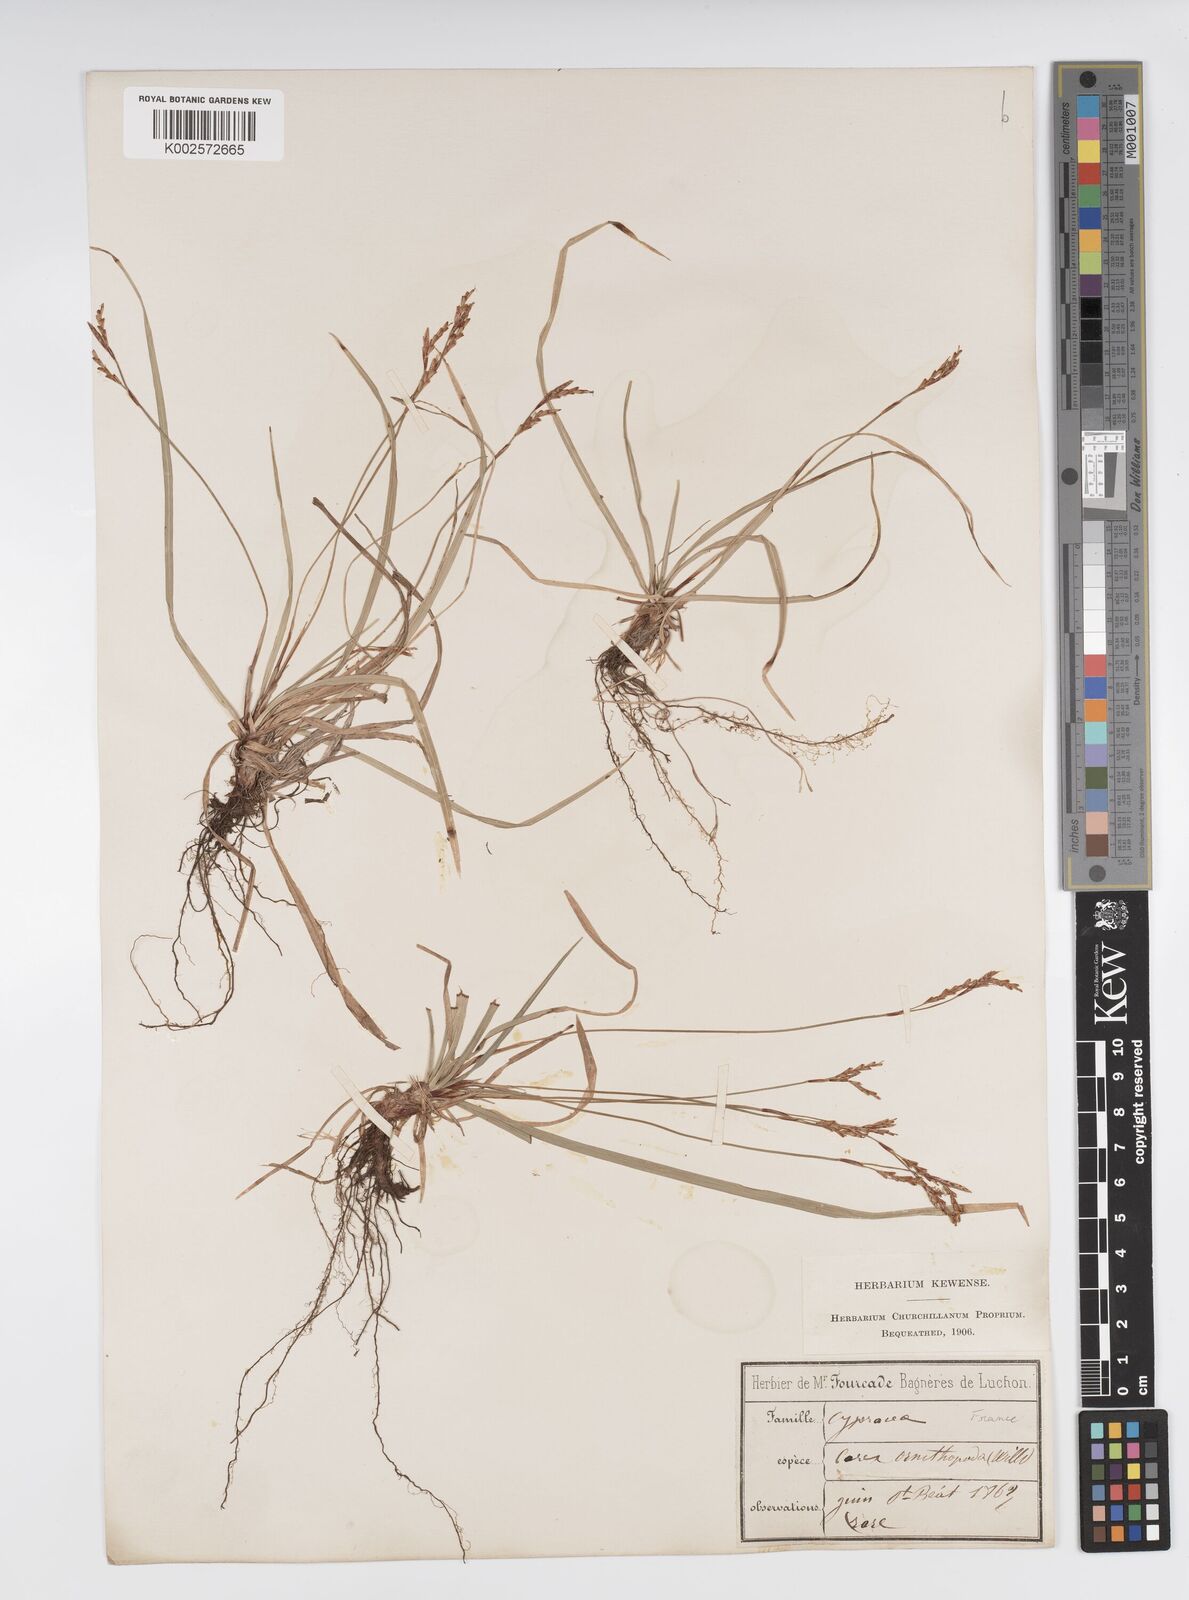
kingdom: Plantae
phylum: Tracheophyta
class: Liliopsida
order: Poales
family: Cyperaceae
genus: Carex
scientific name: Carex ornithopoda
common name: Bird's-foot sedge
